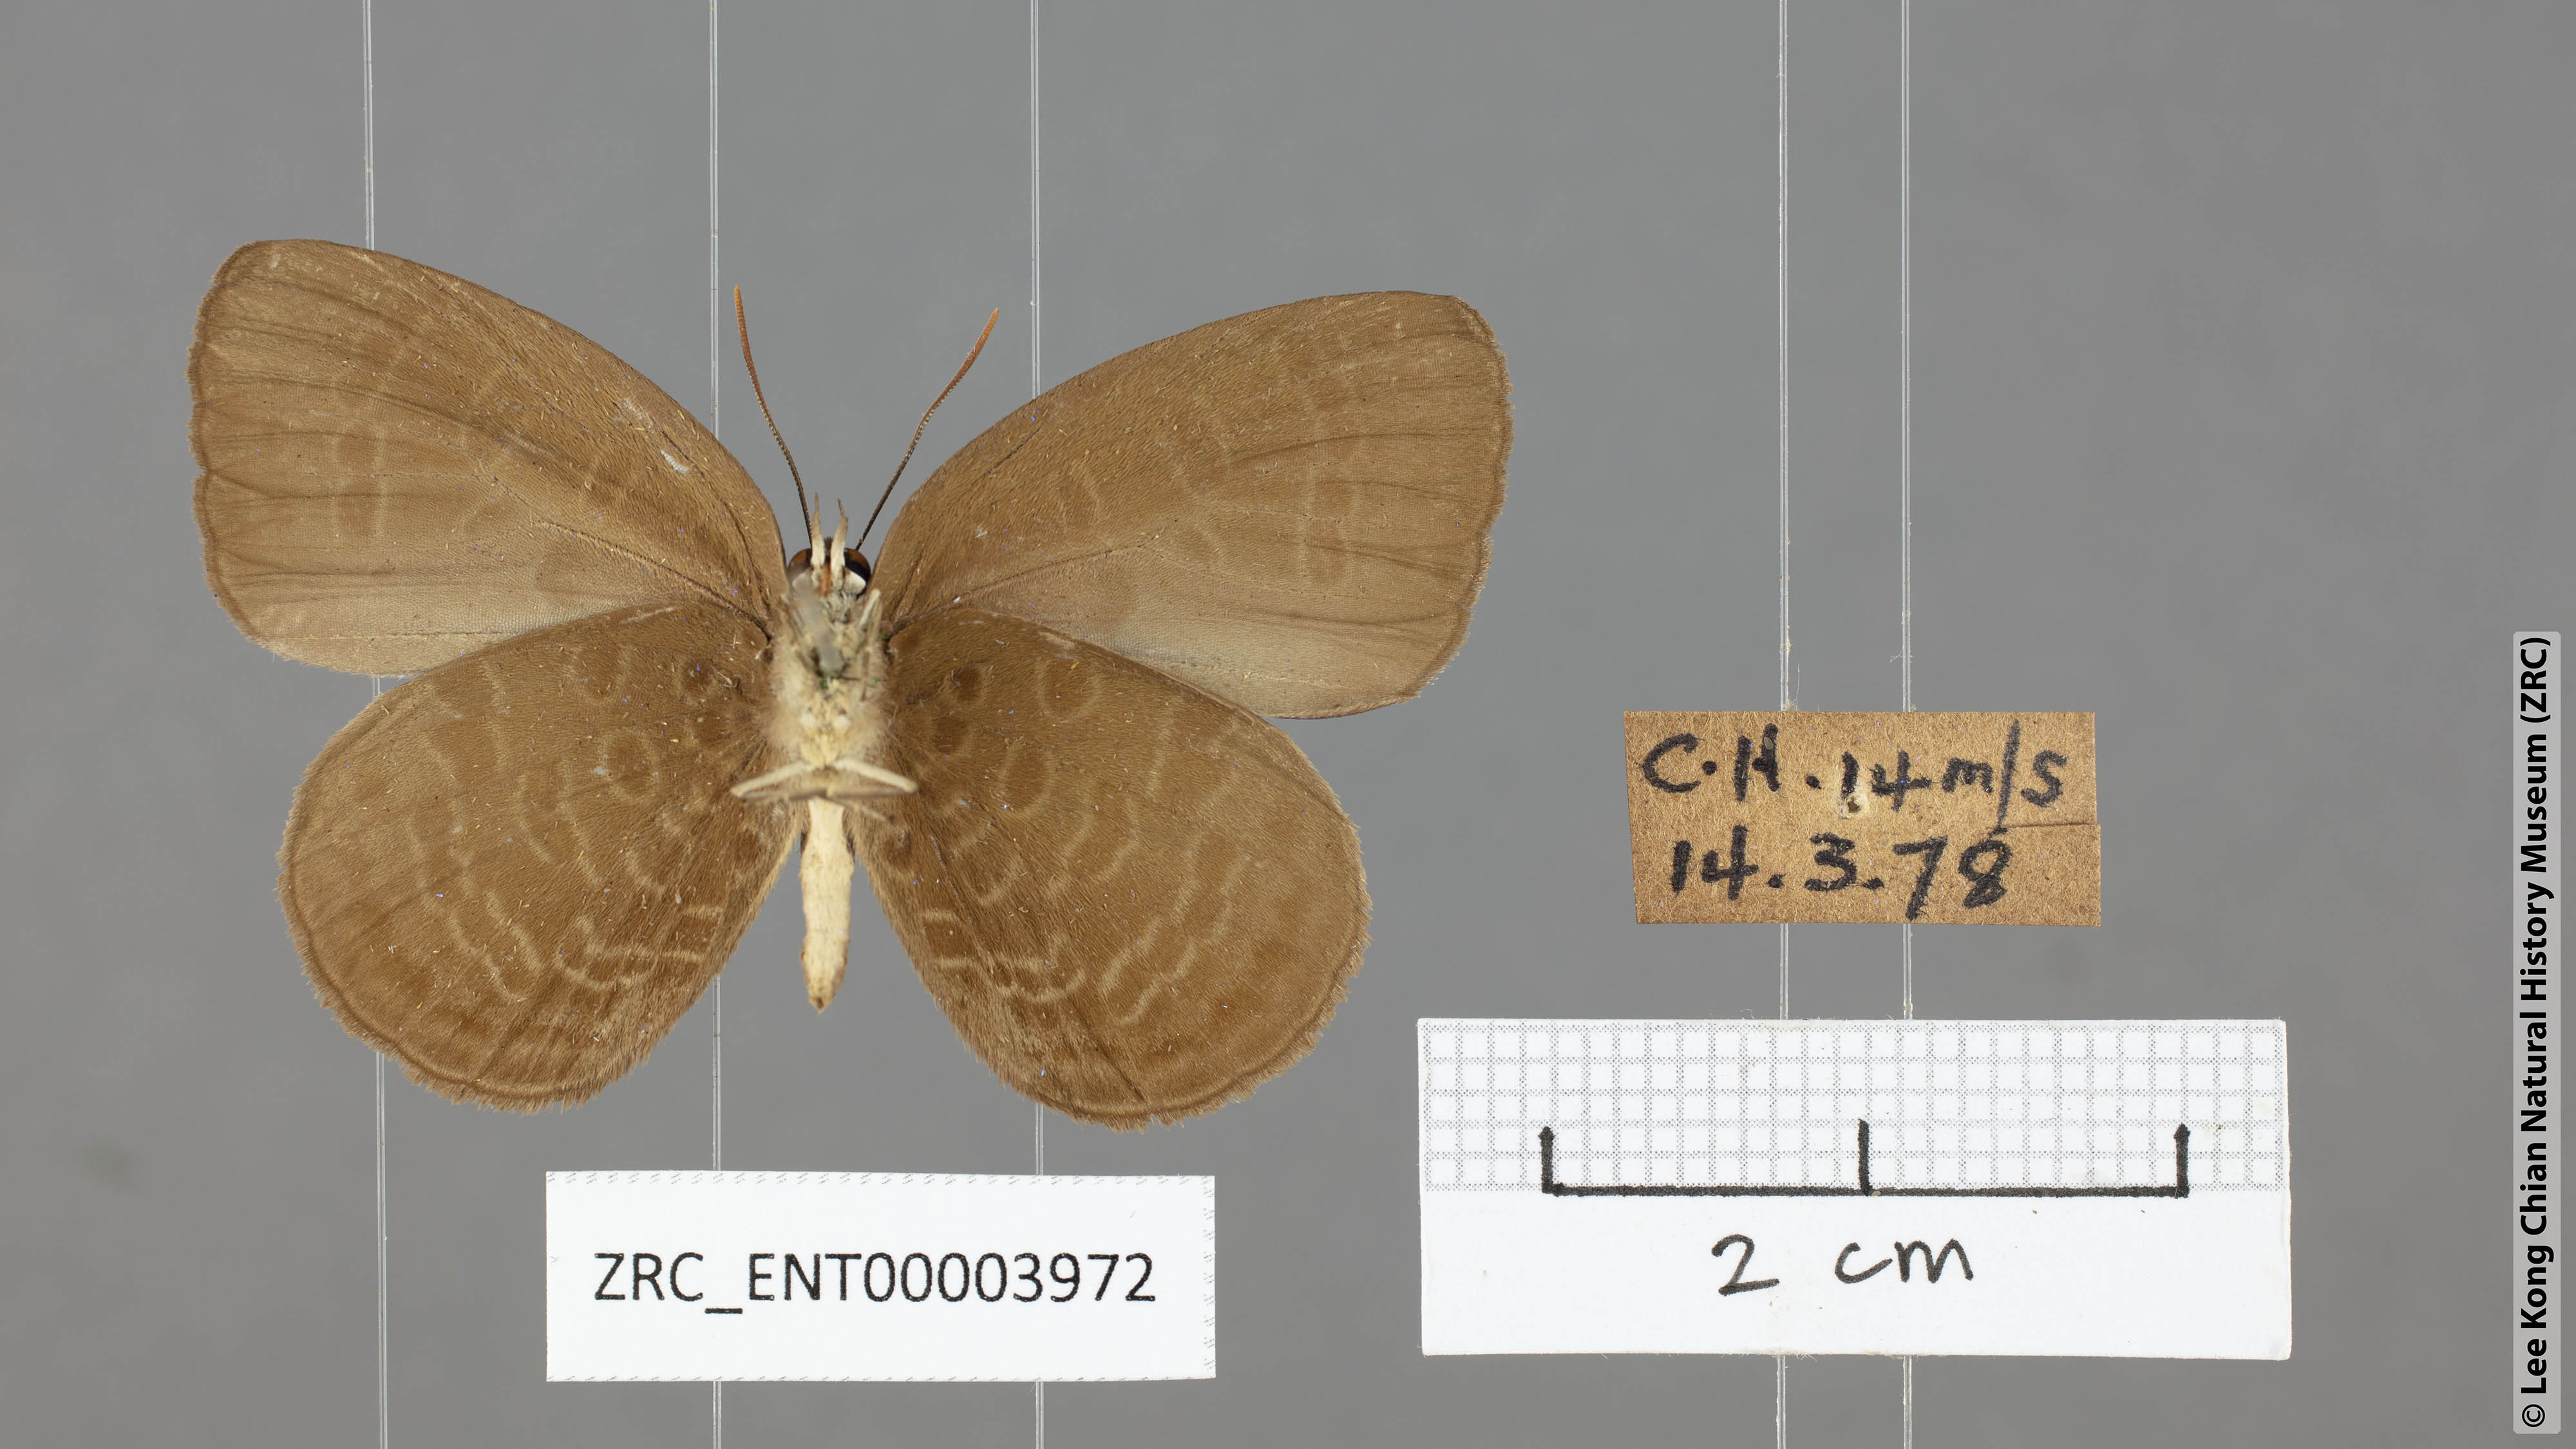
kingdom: Animalia
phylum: Arthropoda
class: Insecta
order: Lepidoptera
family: Lycaenidae
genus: Arhopala
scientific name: Arhopala inornata
